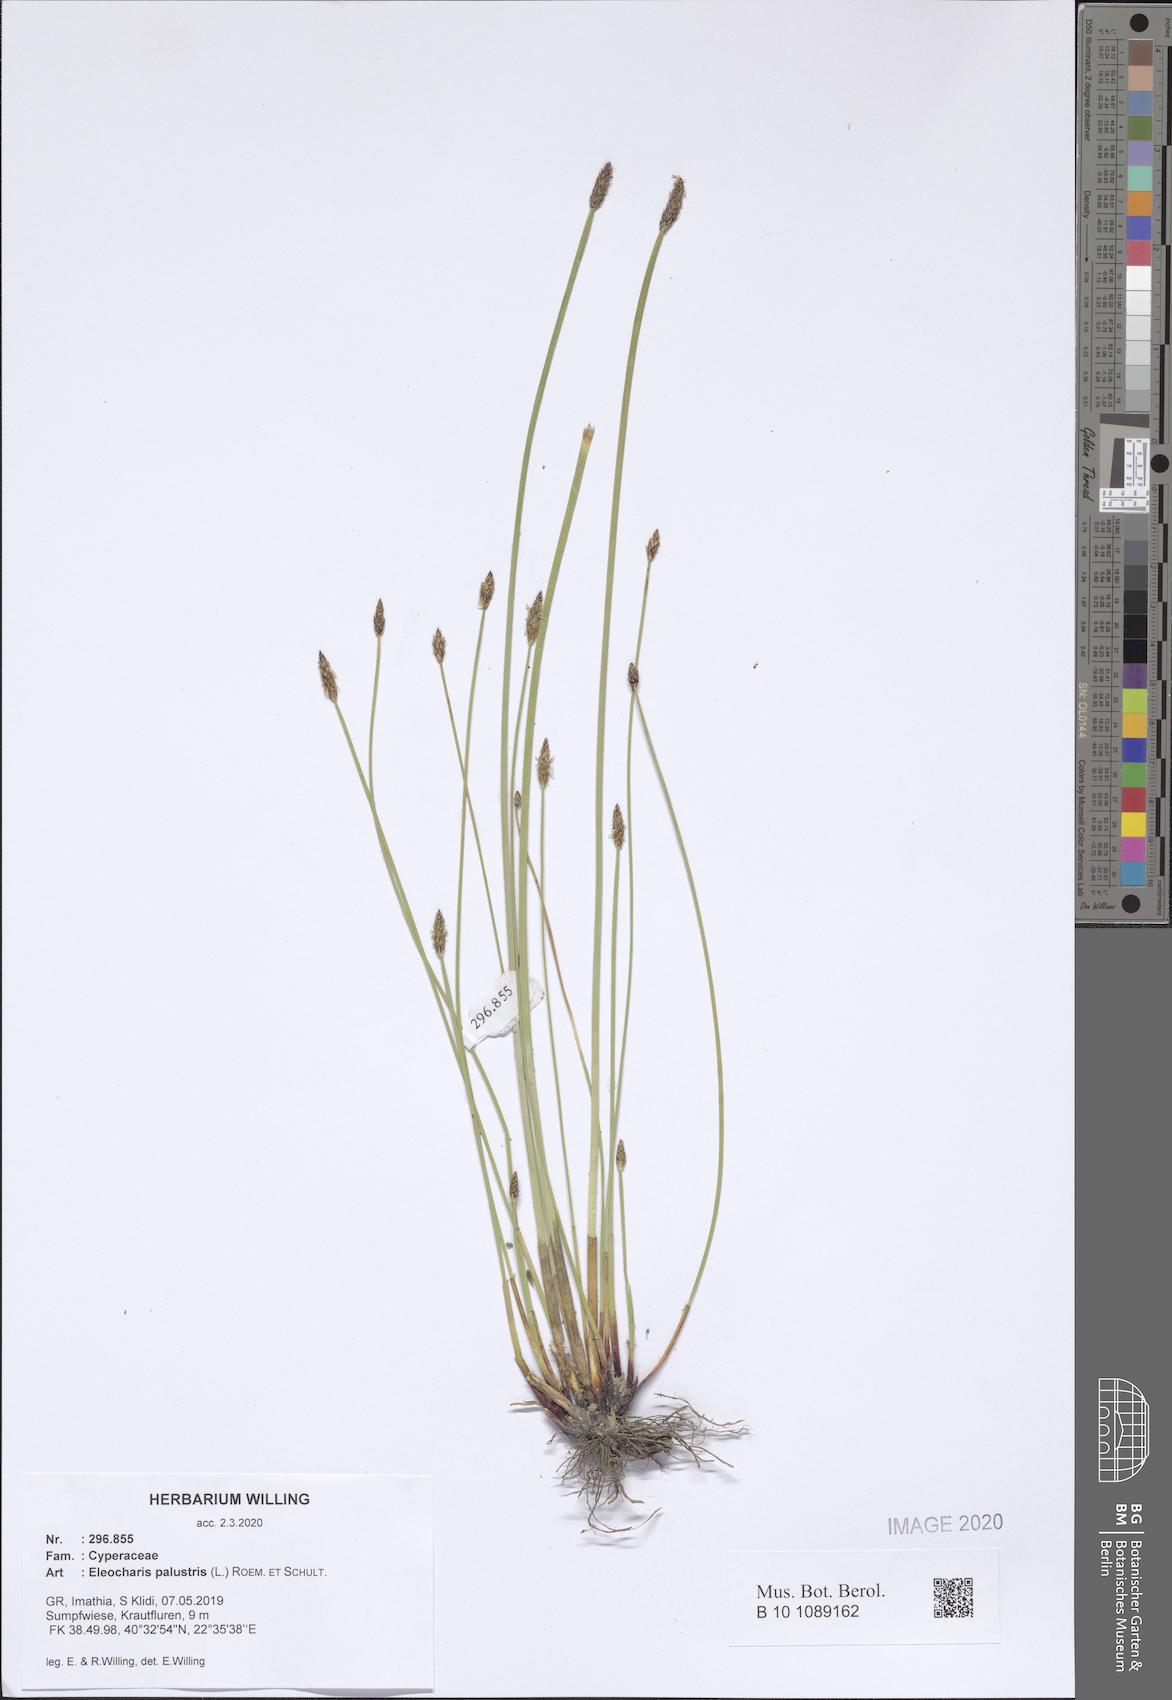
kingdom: Plantae
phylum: Tracheophyta
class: Liliopsida
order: Poales
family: Cyperaceae
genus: Eleocharis
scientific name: Eleocharis palustris
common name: Common spike-rush
